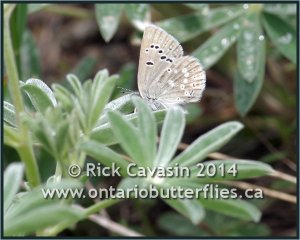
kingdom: Animalia
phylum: Arthropoda
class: Insecta
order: Lepidoptera
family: Lycaenidae
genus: Icaricia
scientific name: Icaricia icarioides
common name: Boisduval's Blue
